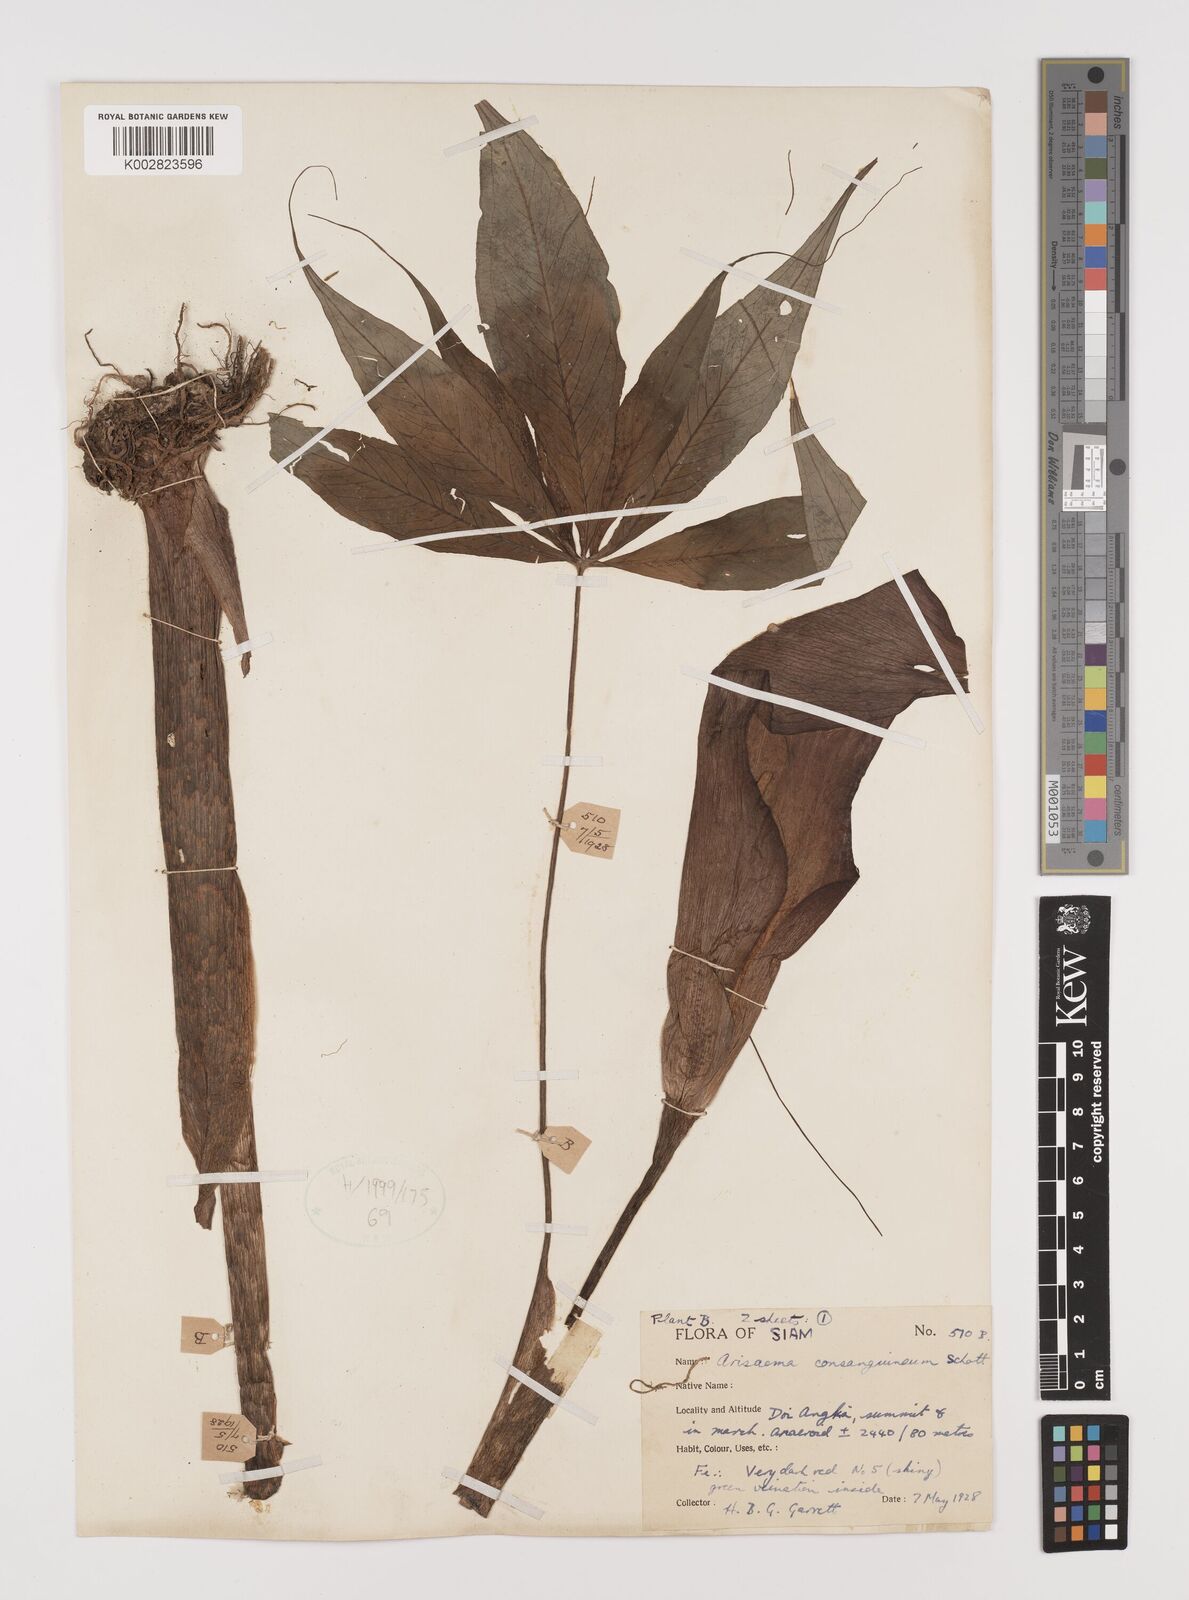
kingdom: Plantae
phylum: Tracheophyta
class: Liliopsida
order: Alismatales
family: Araceae
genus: Arisaema
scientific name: Arisaema consanguineum
